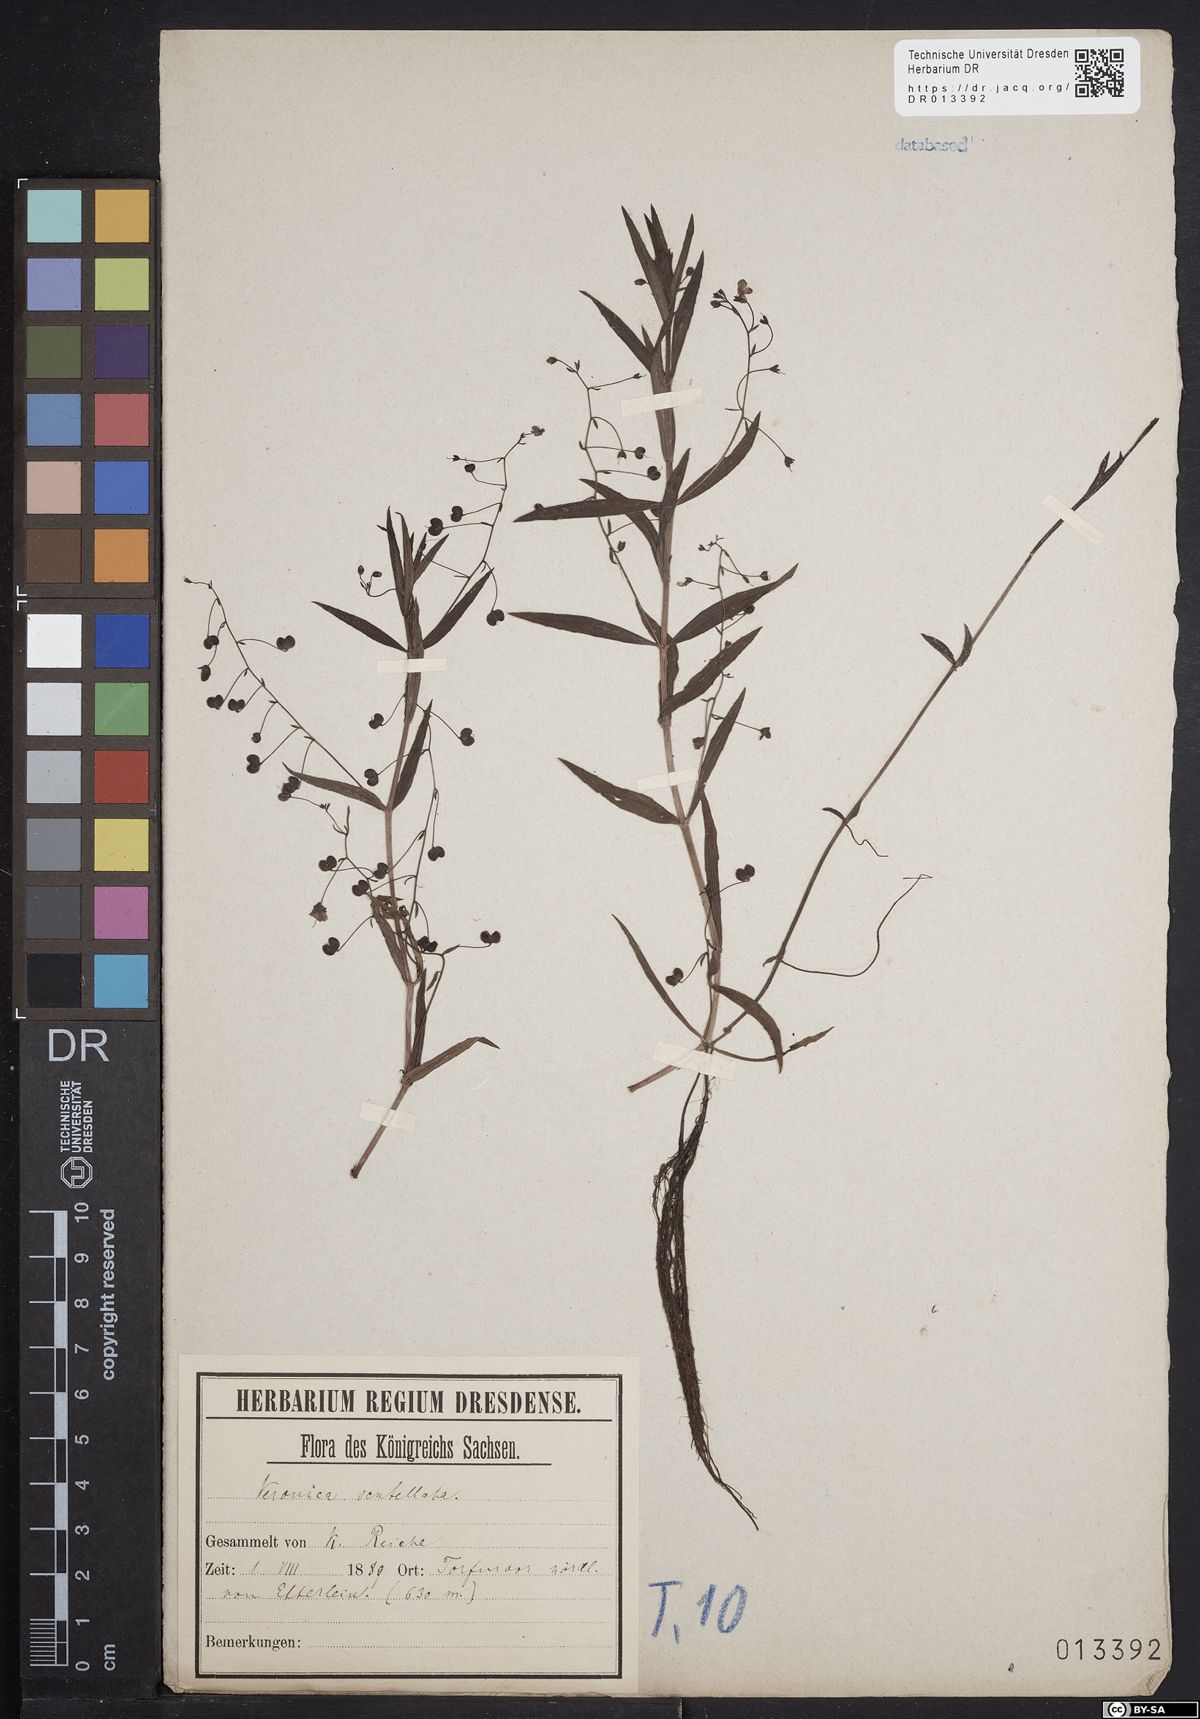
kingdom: Plantae
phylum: Tracheophyta
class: Magnoliopsida
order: Lamiales
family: Plantaginaceae
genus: Veronica
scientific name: Veronica scutellata
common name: Marsh speedwell
